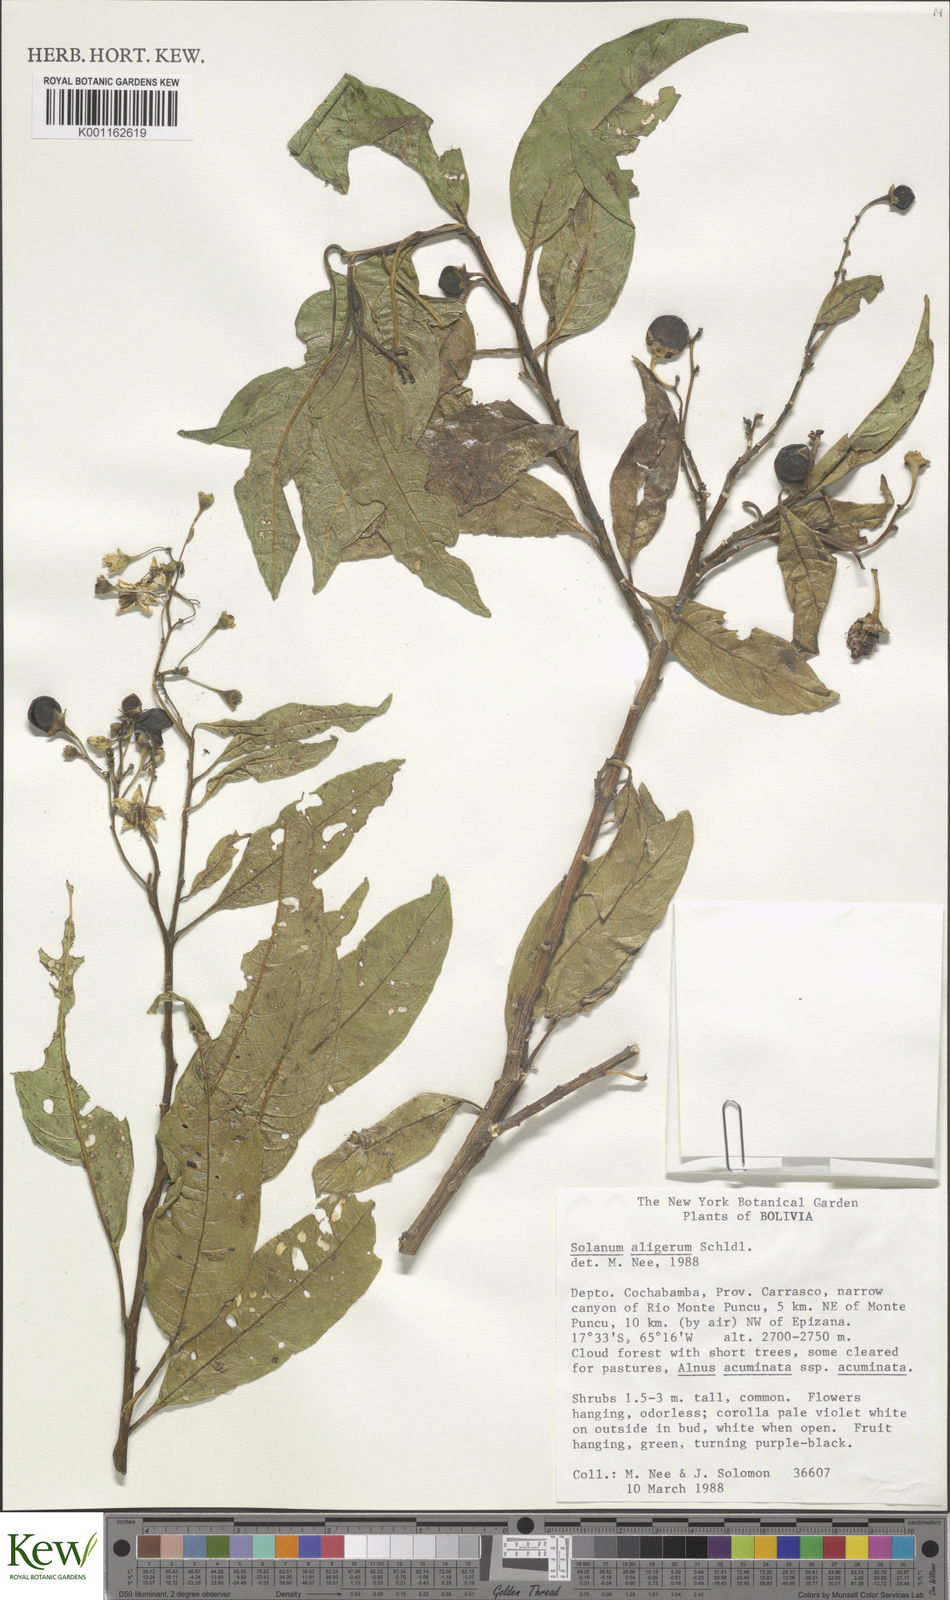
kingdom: Plantae
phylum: Tracheophyta
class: Magnoliopsida
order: Solanales
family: Solanaceae
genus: Solanum
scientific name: Solanum aligerum
